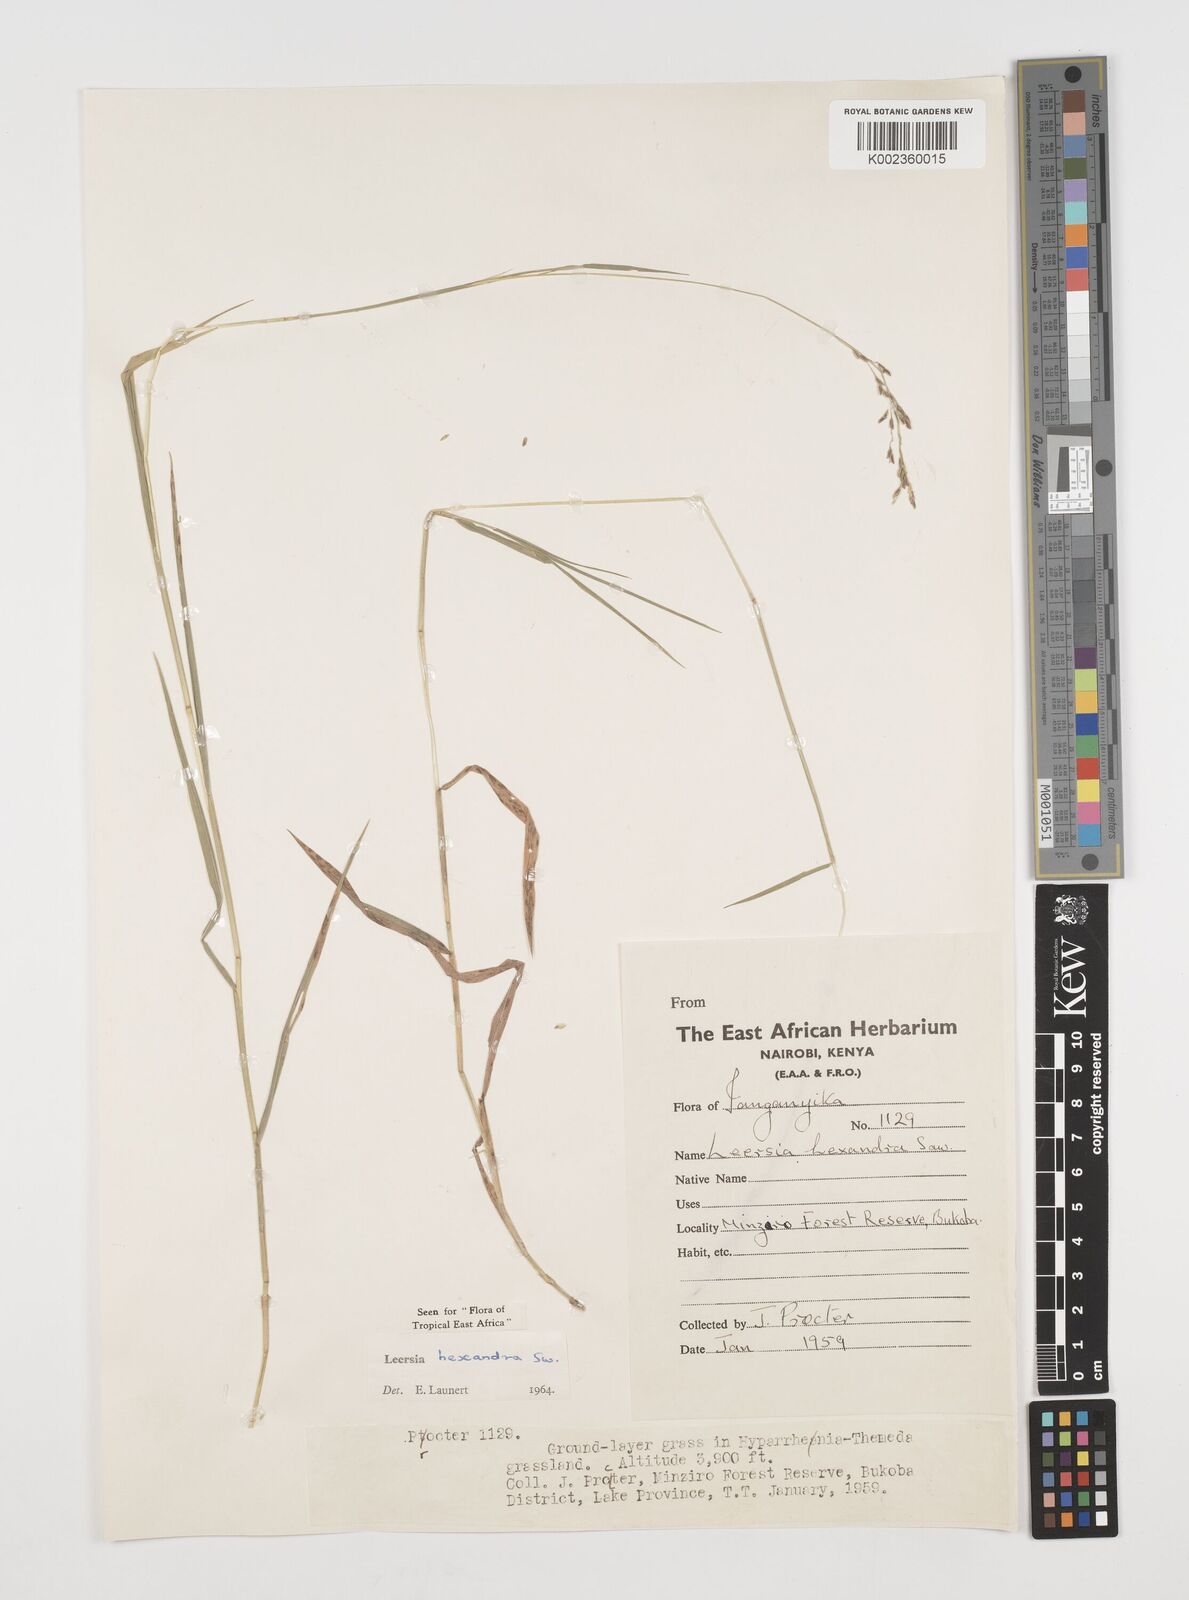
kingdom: Plantae
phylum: Tracheophyta
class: Liliopsida
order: Poales
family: Poaceae
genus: Leersia
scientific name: Leersia hexandra
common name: Southern cut grass
